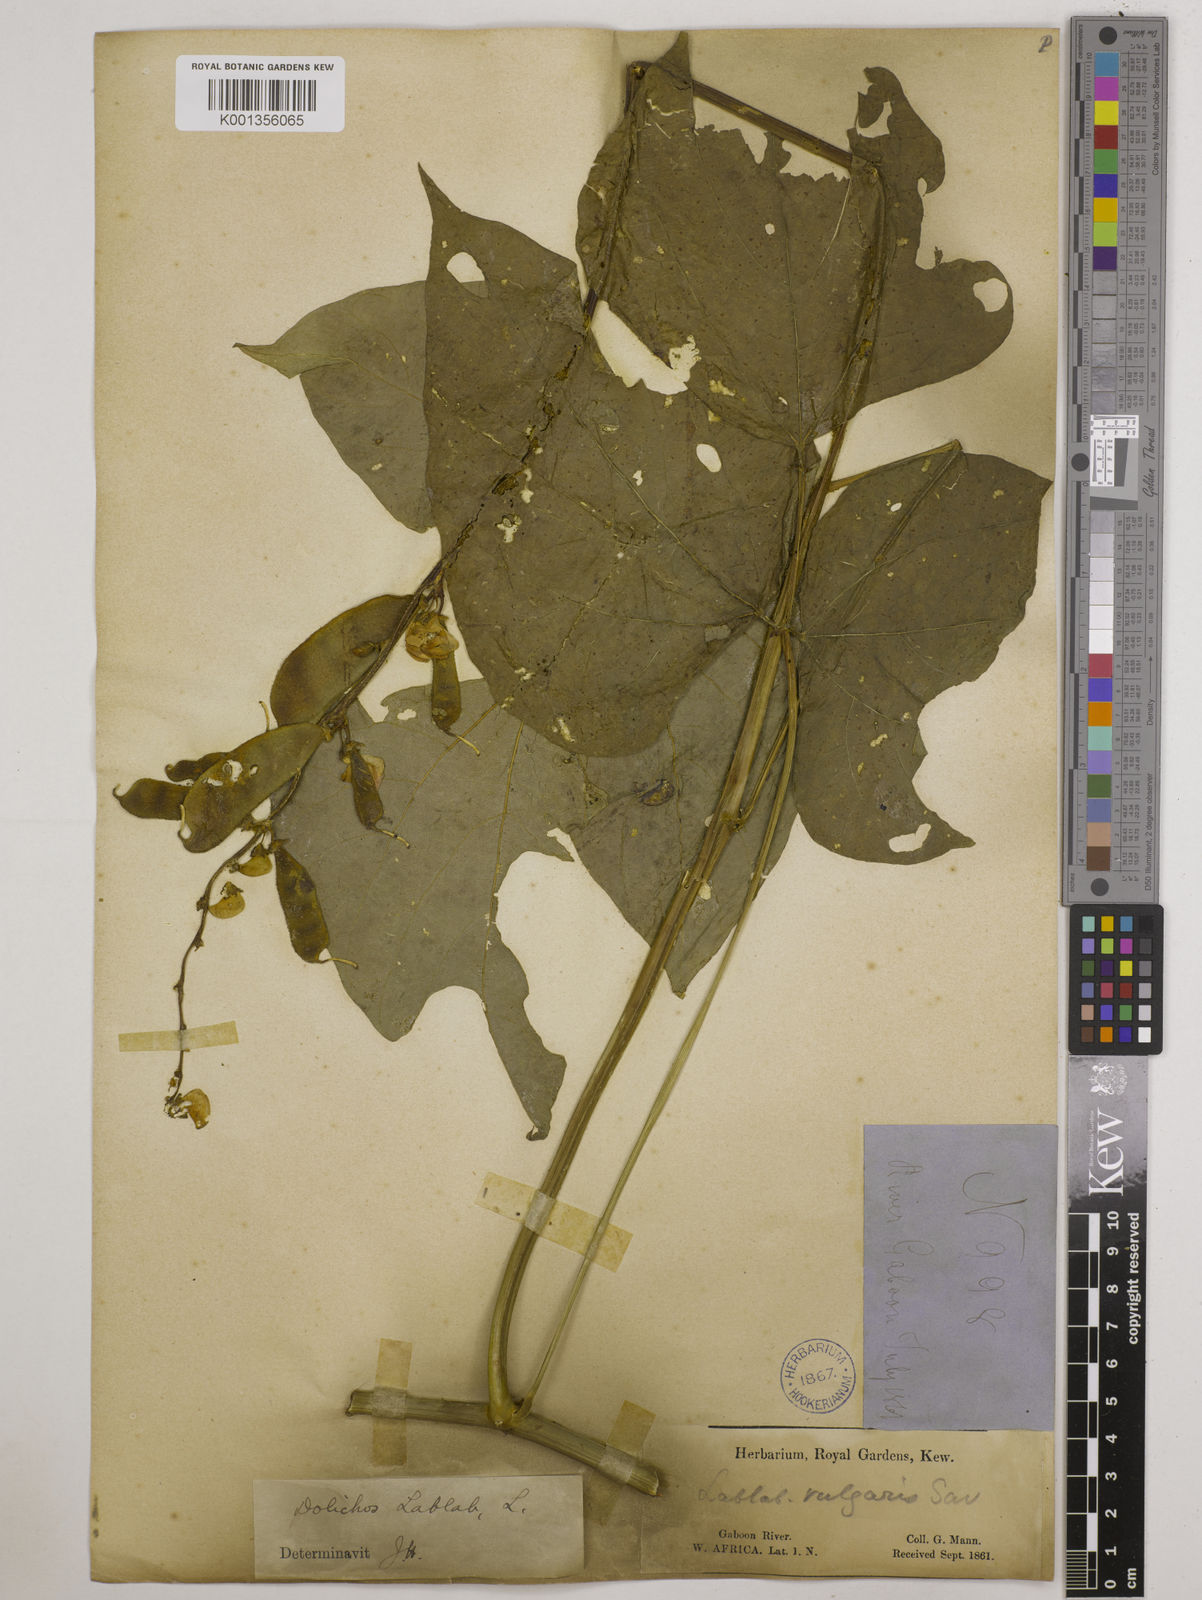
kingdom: Plantae
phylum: Tracheophyta
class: Magnoliopsida
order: Fabales
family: Fabaceae
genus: Lablab
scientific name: Lablab purpureus
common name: Lablab-bean
